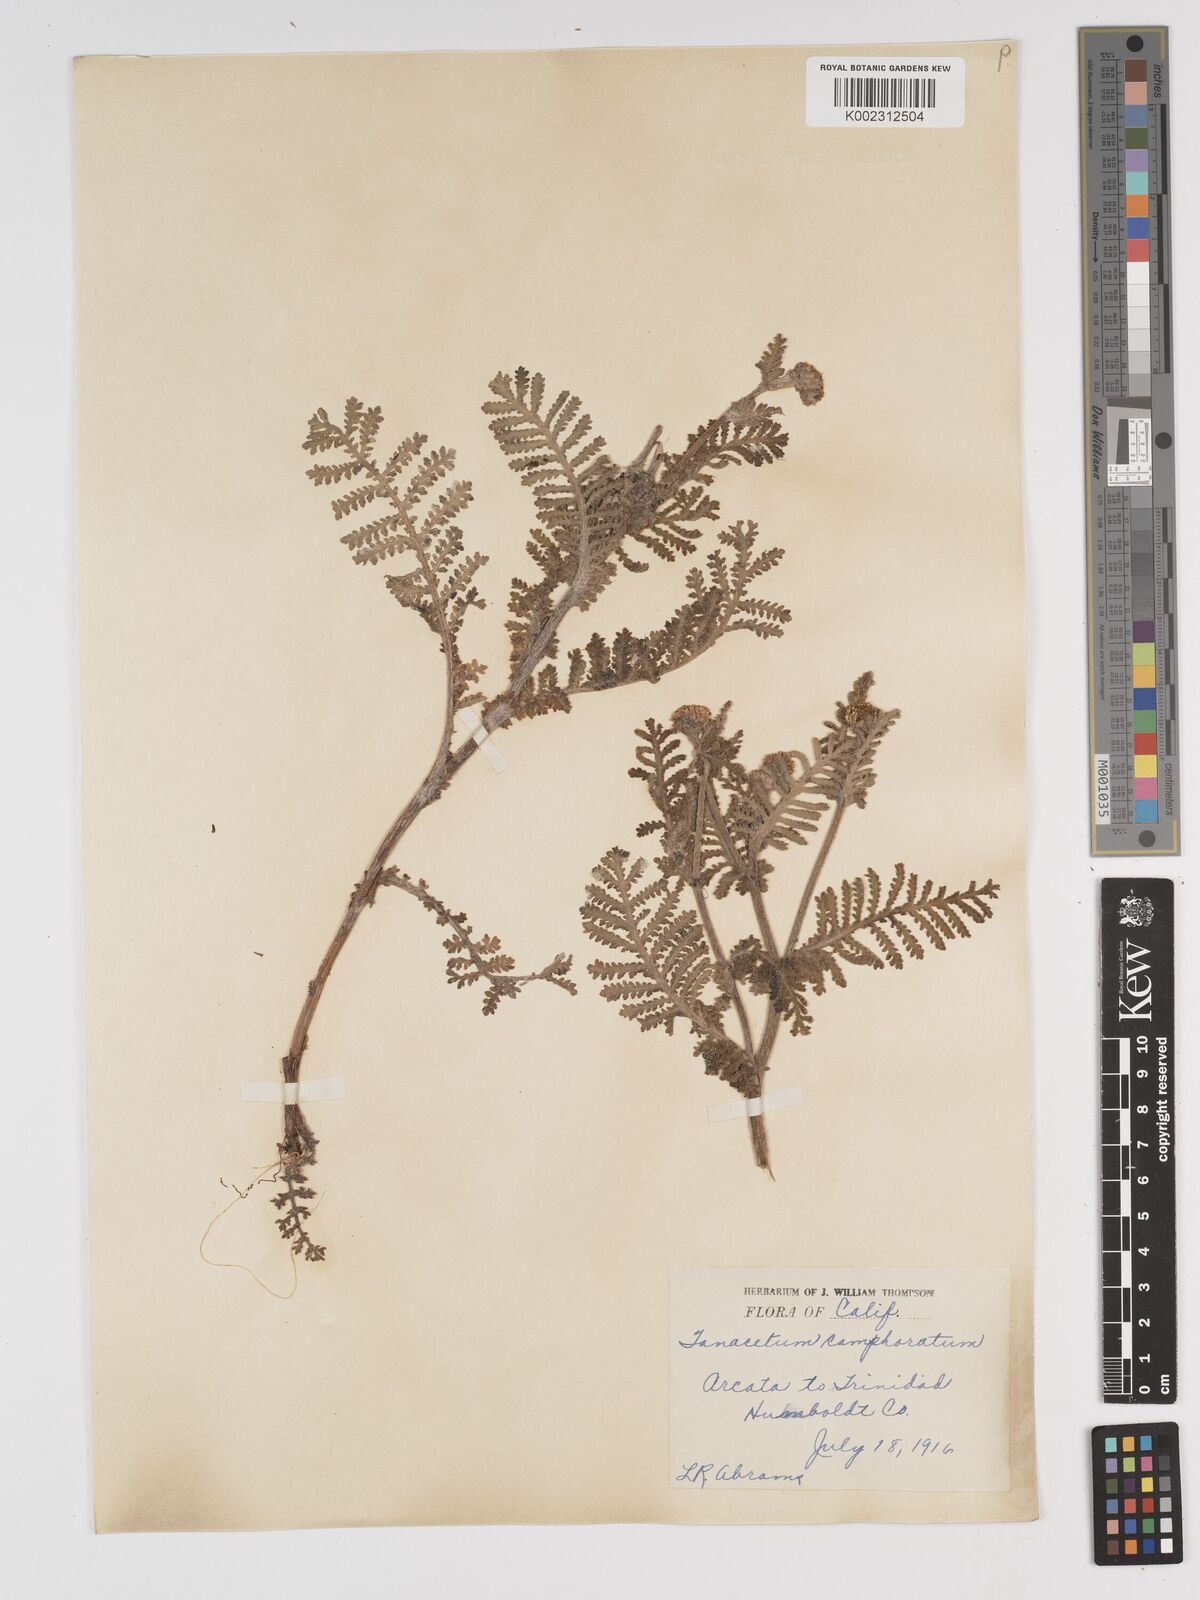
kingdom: Plantae
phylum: Tracheophyta
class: Magnoliopsida
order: Asterales
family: Asteraceae
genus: Tanacetum
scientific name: Tanacetum bipinnatum
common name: Dwarf tansy
